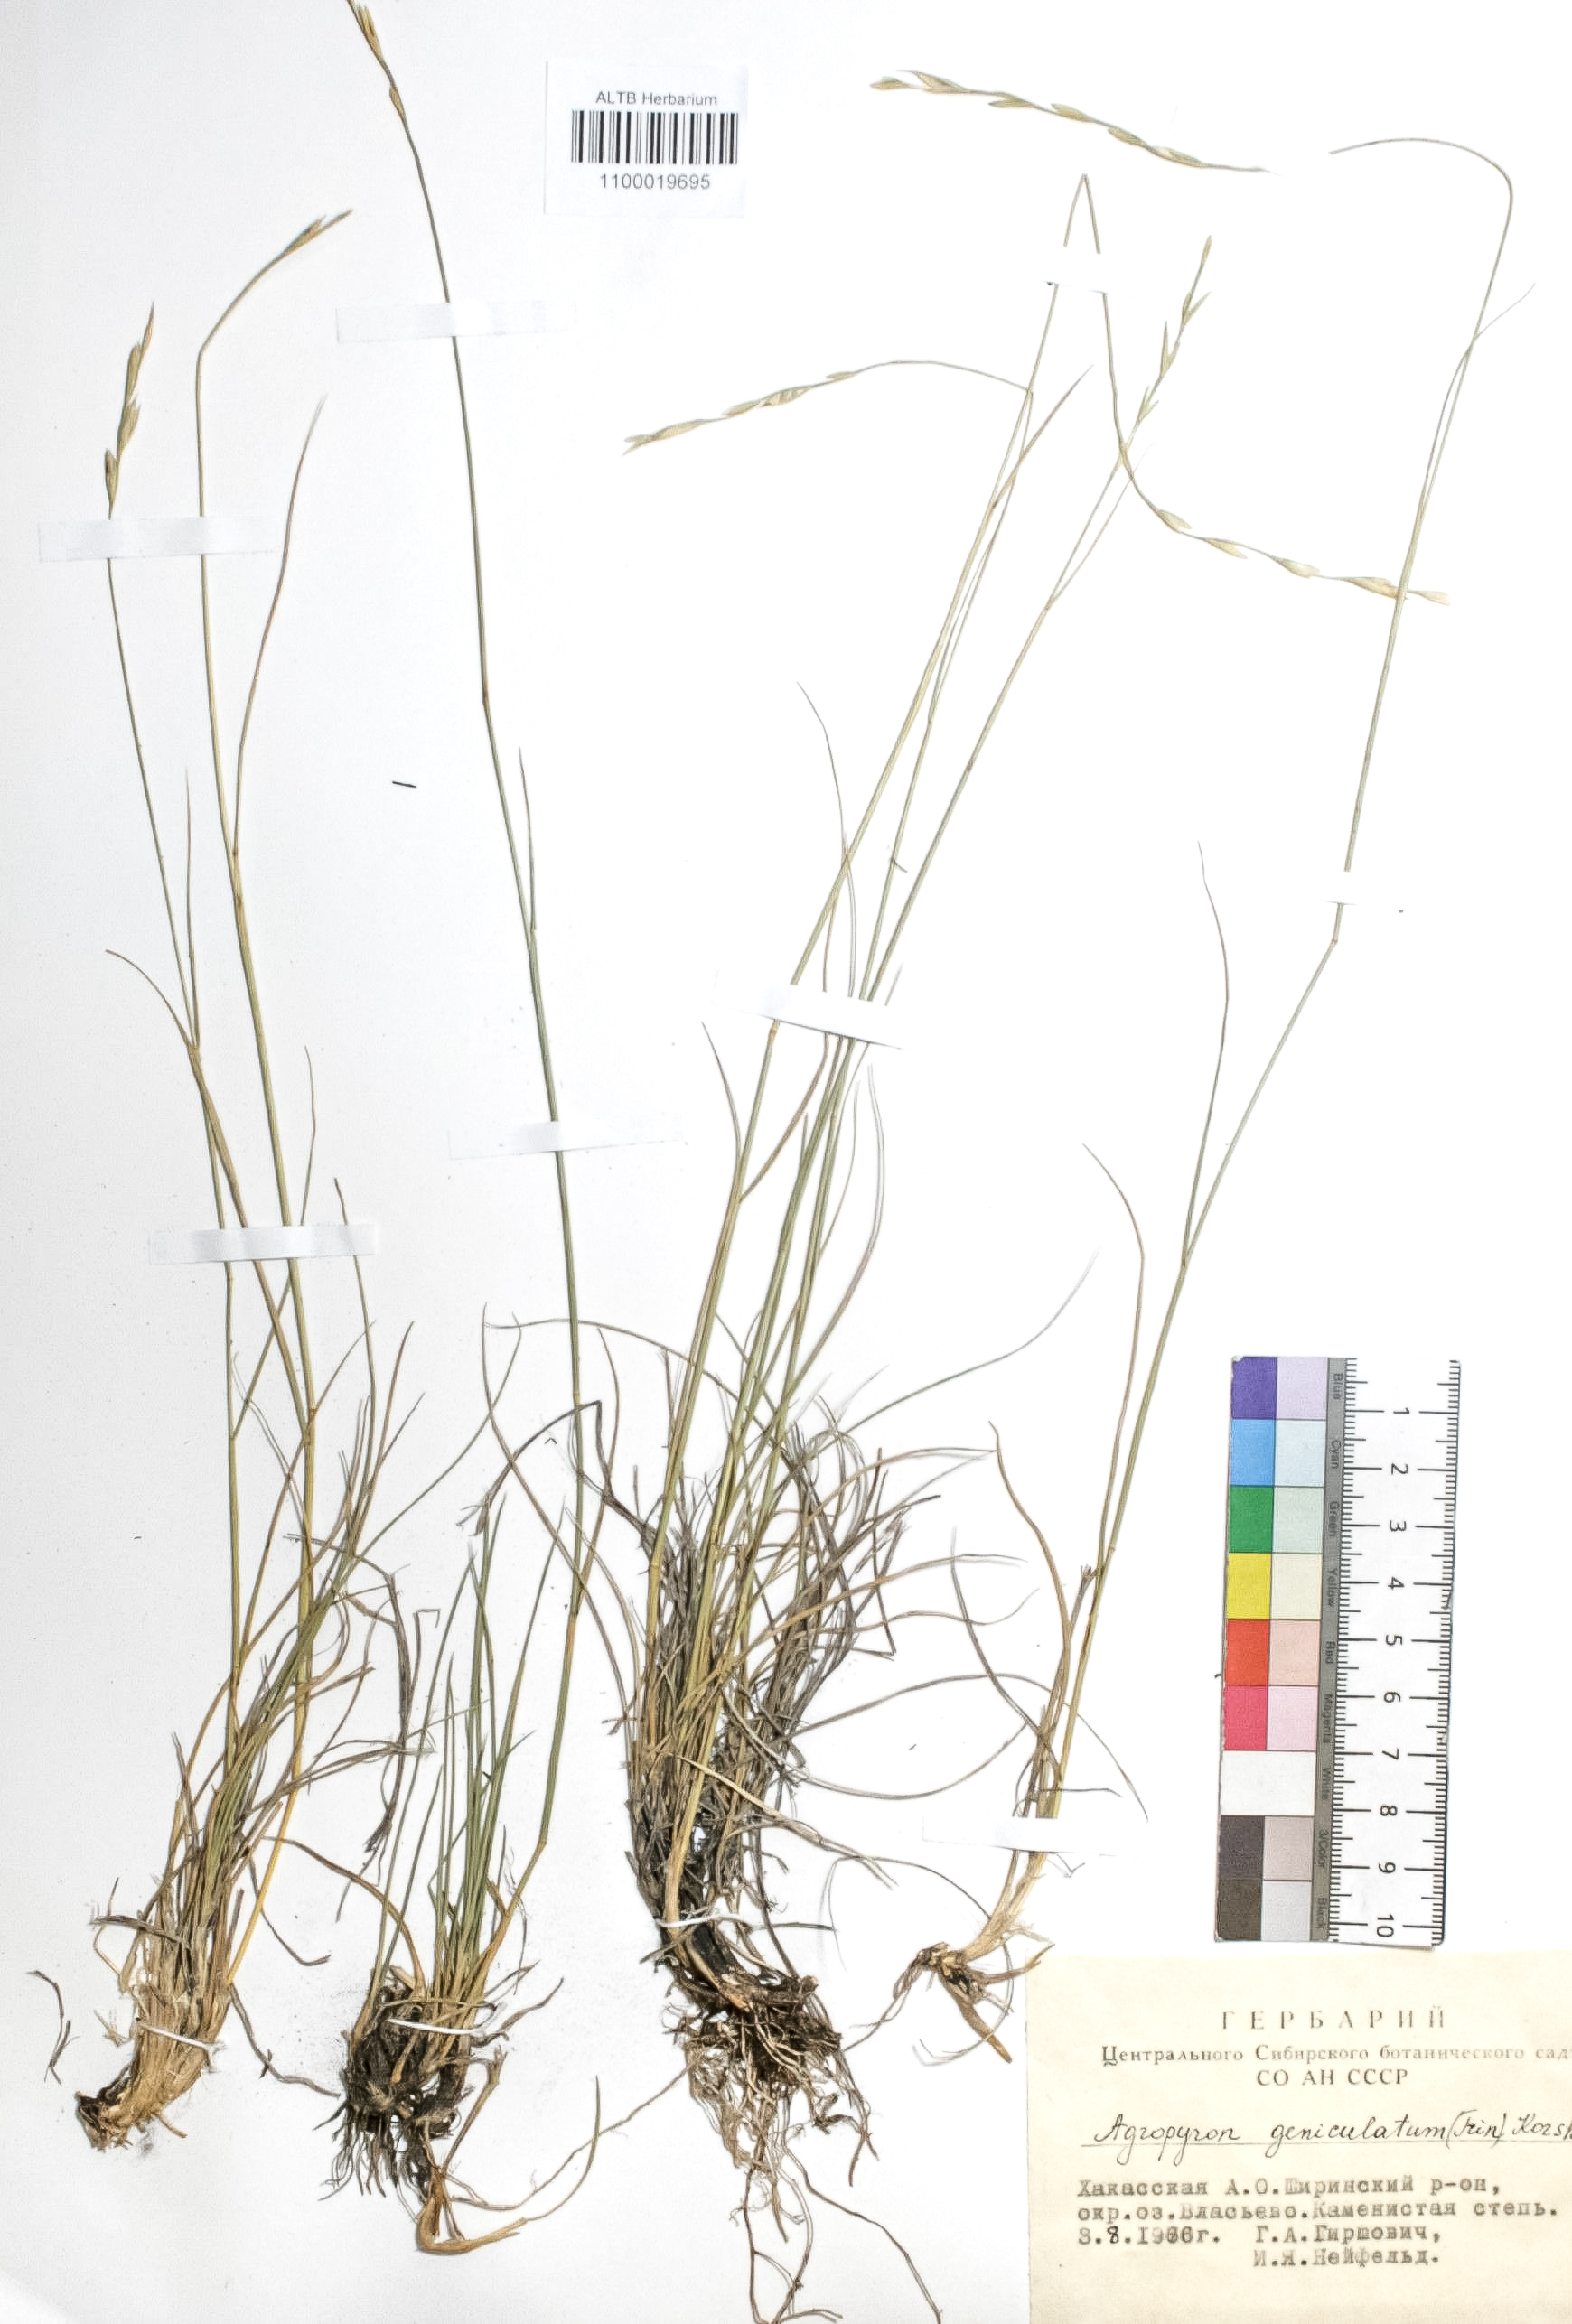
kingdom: Plantae
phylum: Tracheophyta
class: Liliopsida
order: Poales
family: Poaceae
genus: Pseudoroegneria
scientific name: Pseudoroegneria geniculata
